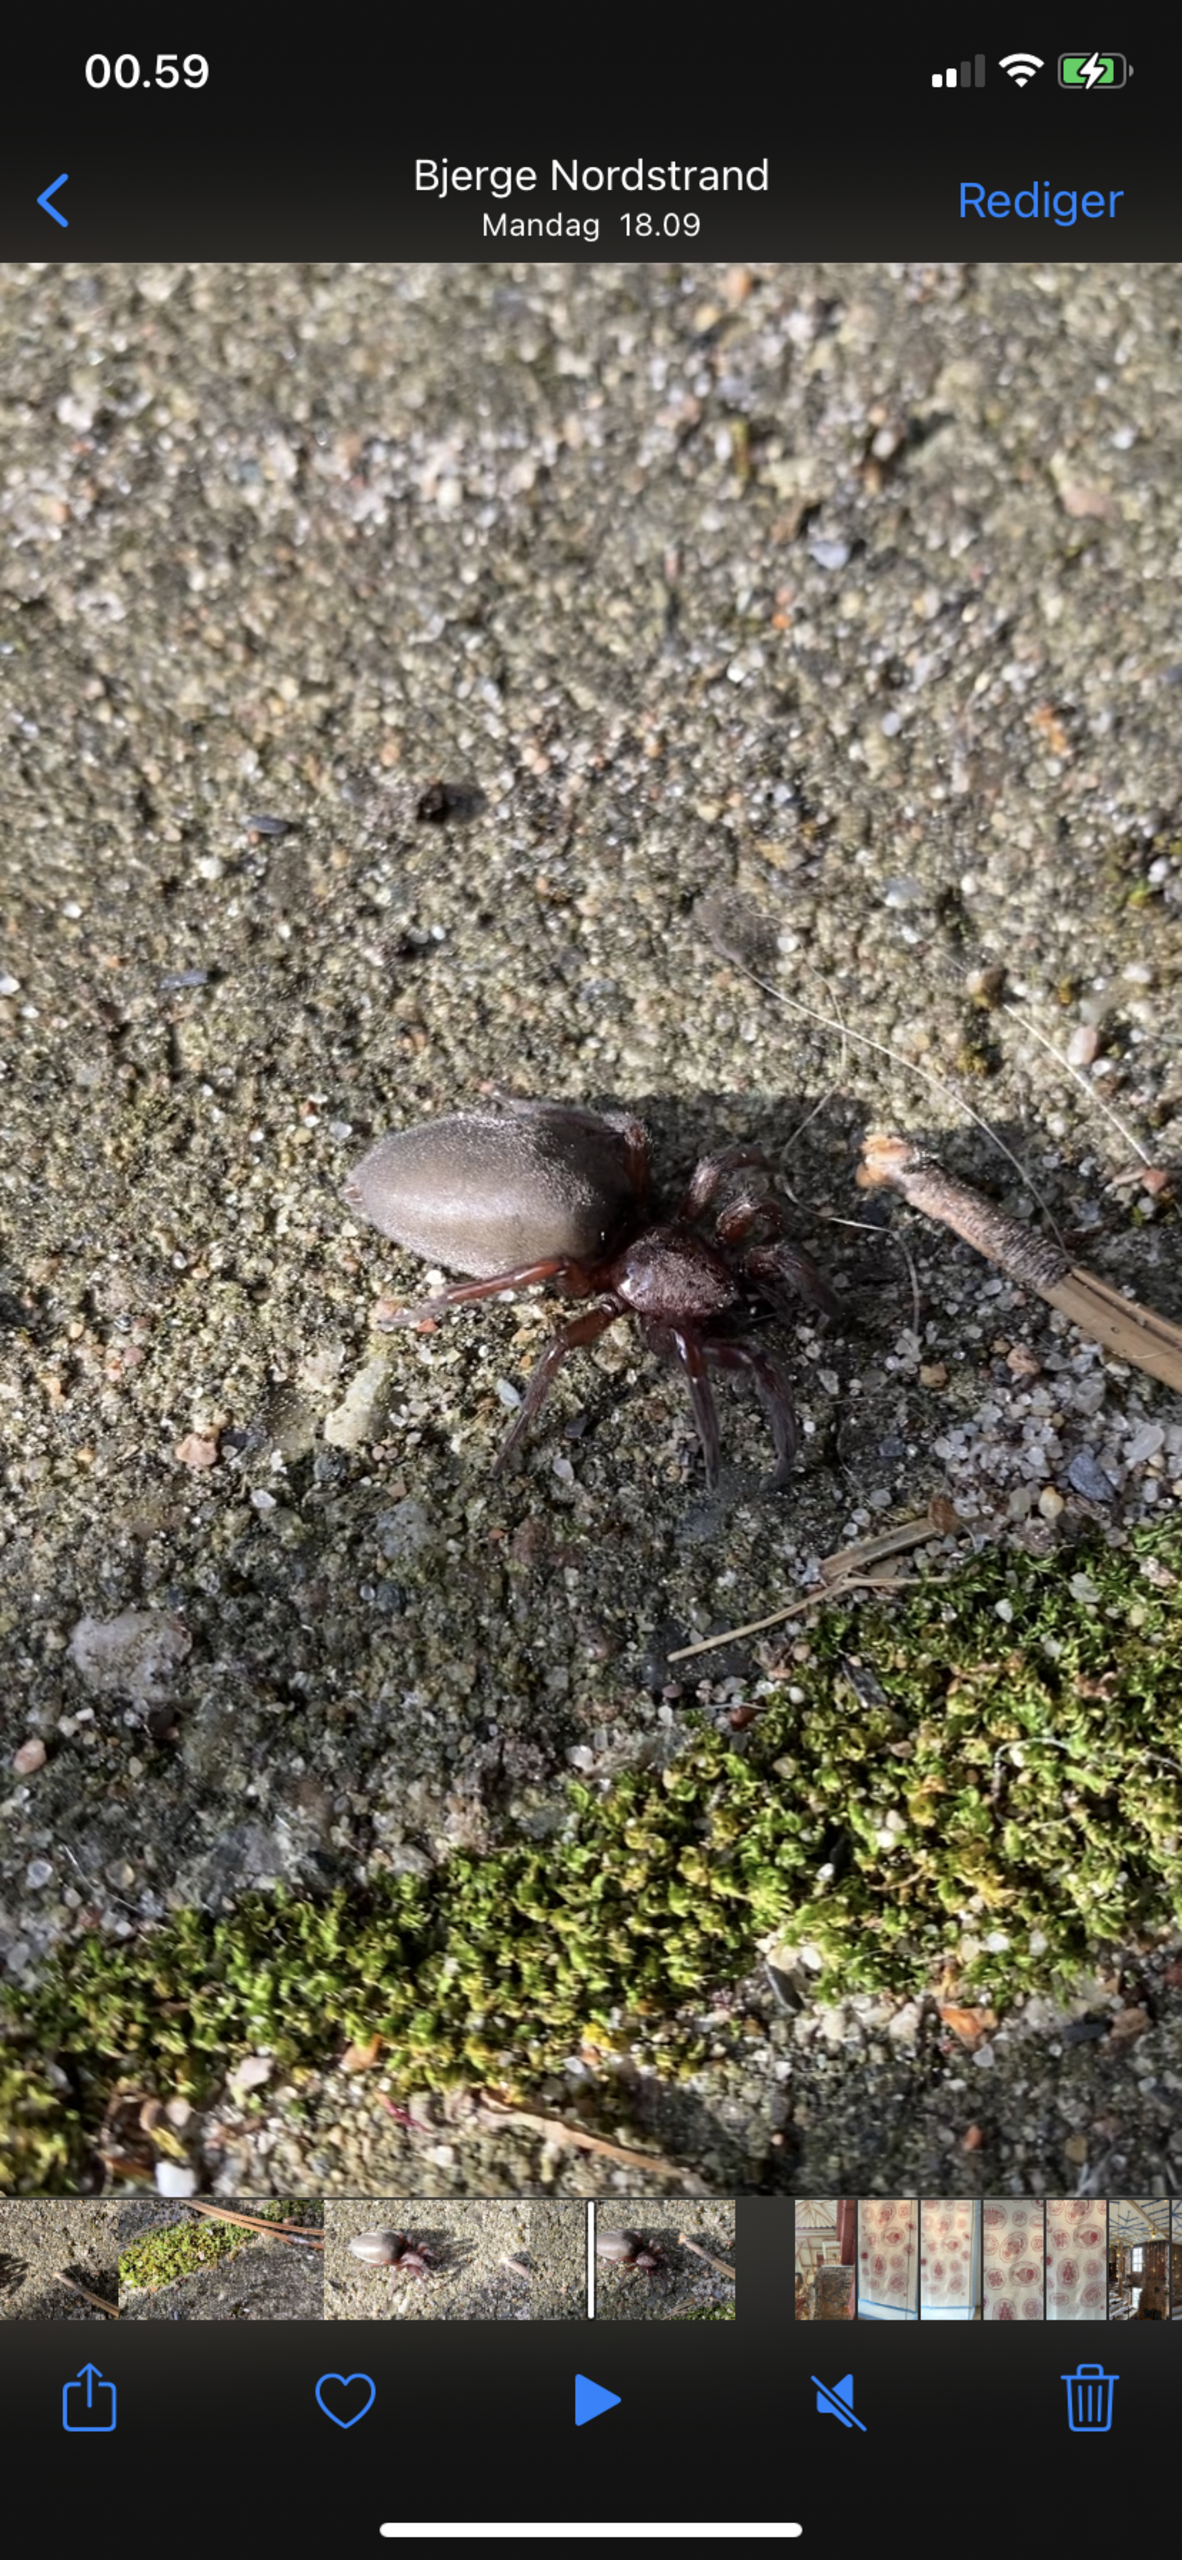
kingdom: Animalia
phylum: Arthropoda
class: Arachnida
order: Araneae
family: Gnaphosidae
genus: Scotophaeus
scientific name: Scotophaeus
